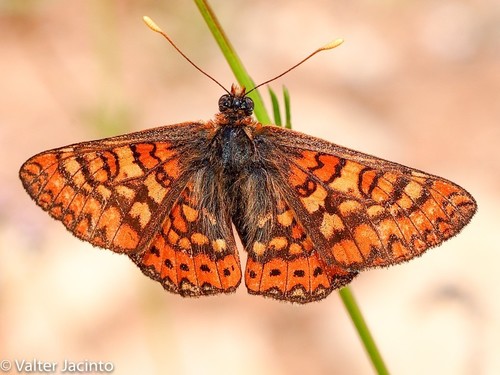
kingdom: Animalia
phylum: Arthropoda
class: Insecta
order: Lepidoptera
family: Nymphalidae
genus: Euphydryas
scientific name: Euphydryas aurinia
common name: Marsh fritillary
